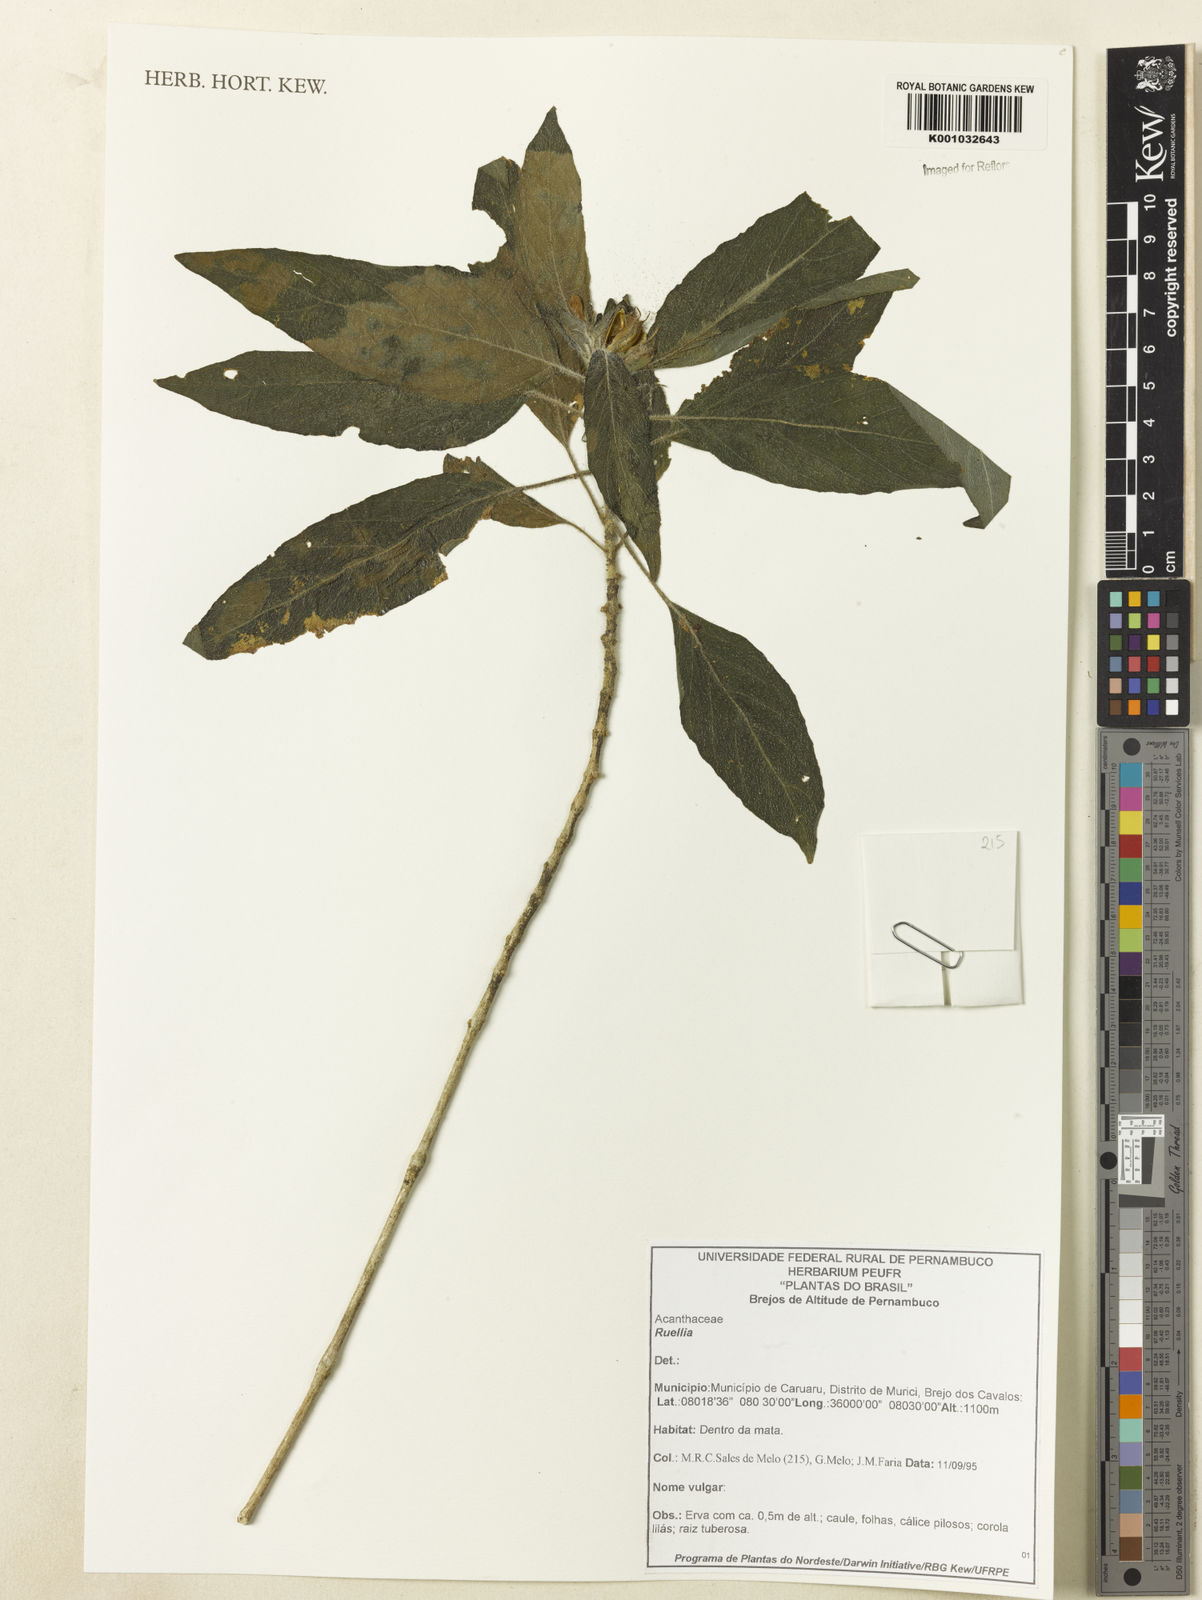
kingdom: Plantae
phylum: Tracheophyta
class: Magnoliopsida
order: Lamiales
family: Acanthaceae
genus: Ruellia
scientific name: Ruellia
